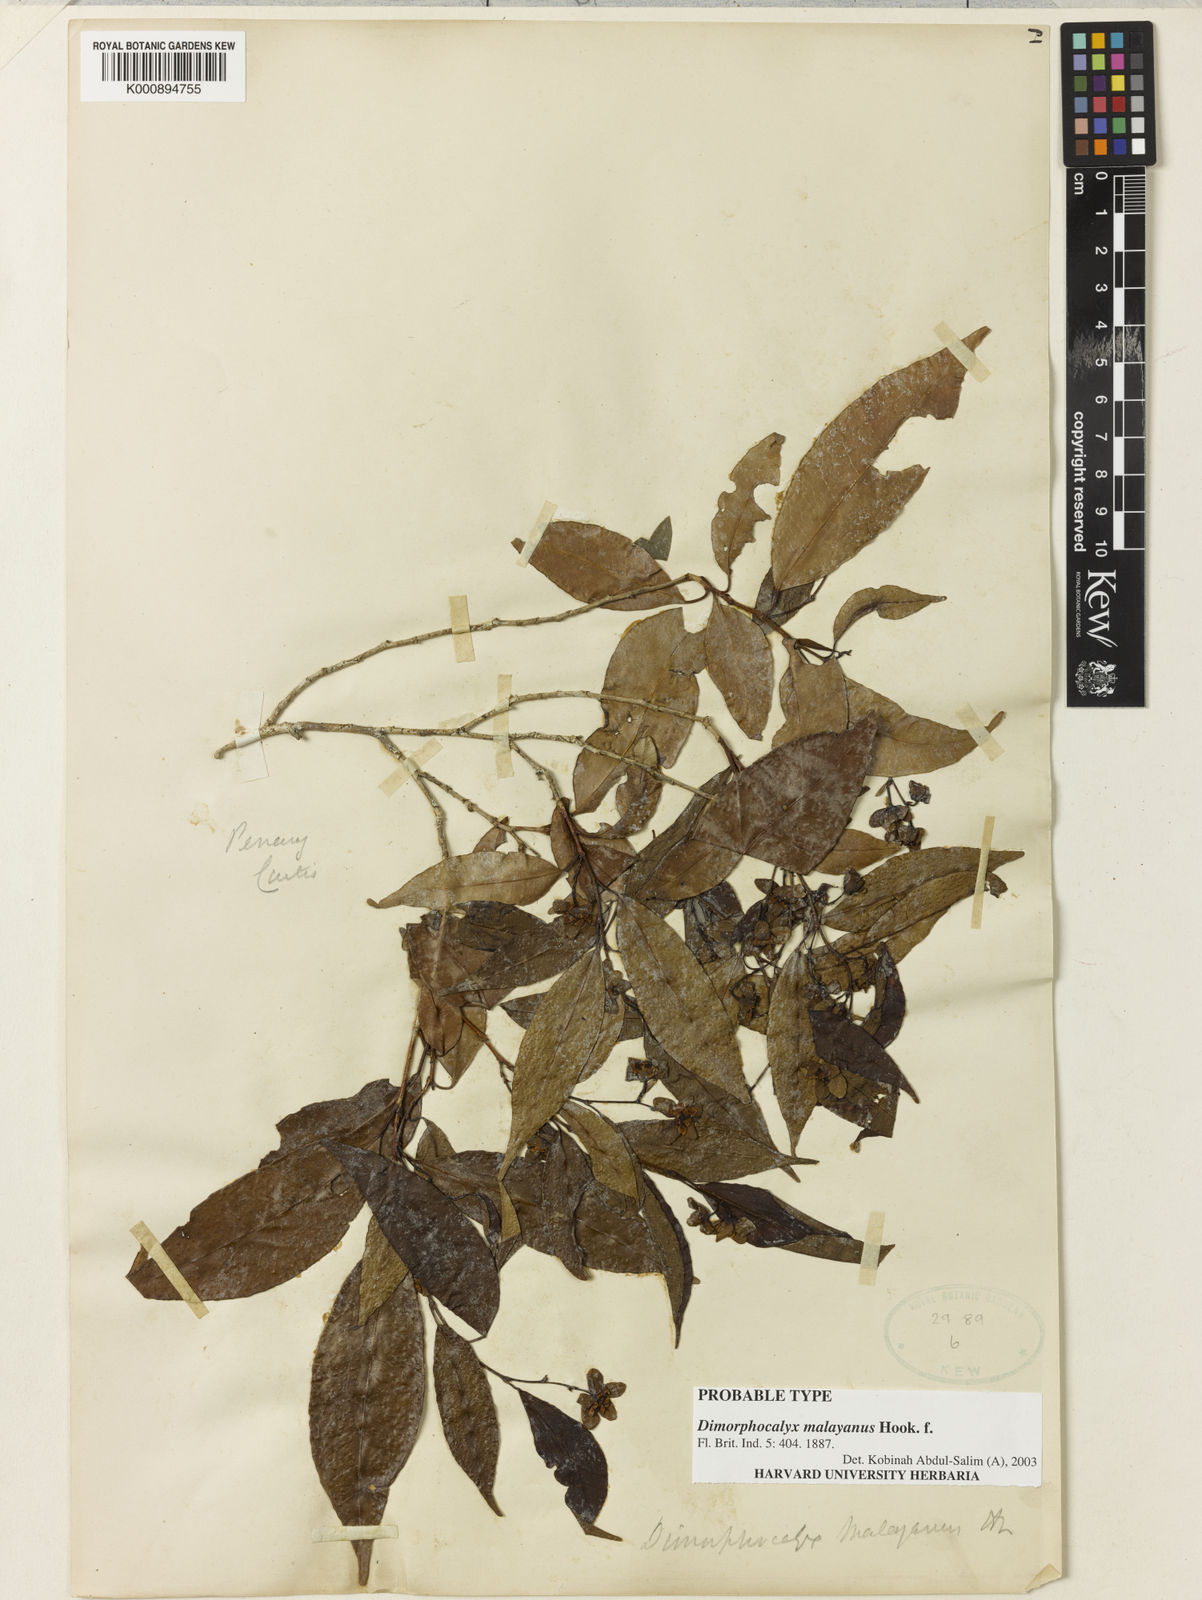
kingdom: Plantae
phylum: Tracheophyta
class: Magnoliopsida
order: Malpighiales
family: Euphorbiaceae
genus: Tritaxis
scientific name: Tritaxis malayana
